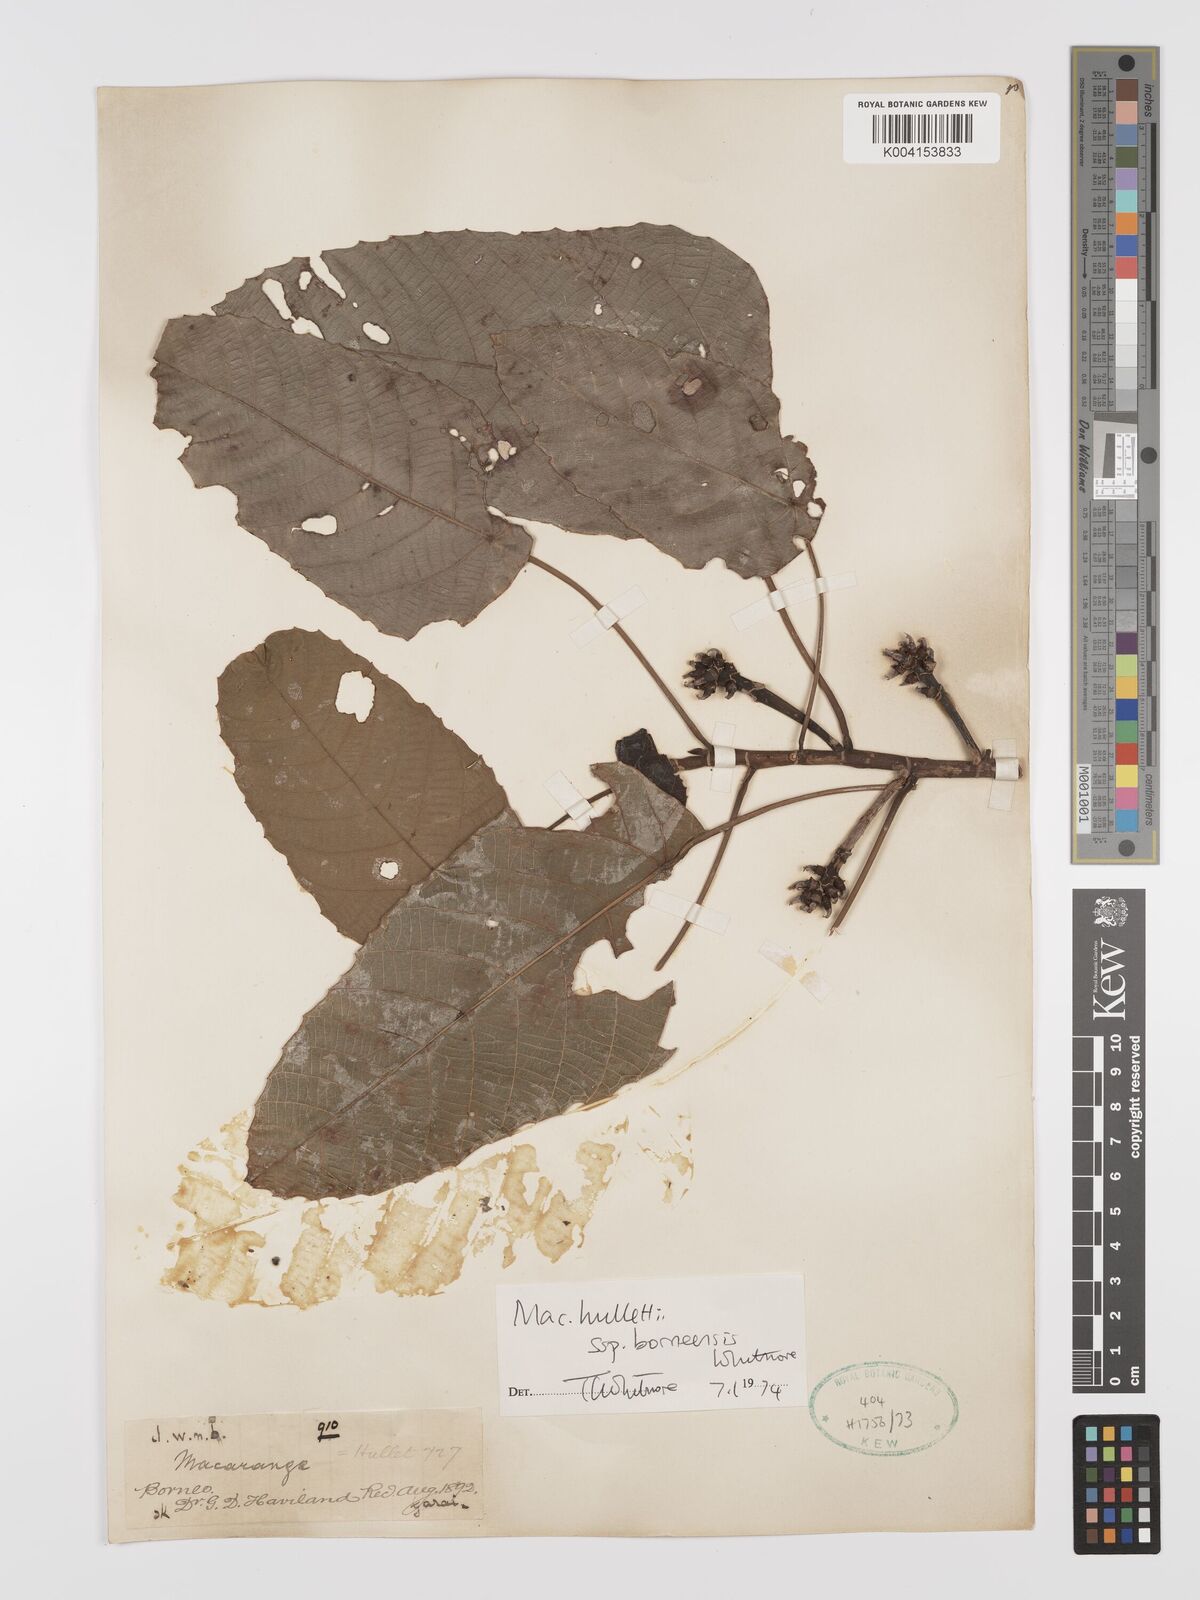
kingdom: Plantae
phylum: Tracheophyta
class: Magnoliopsida
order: Malpighiales
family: Euphorbiaceae
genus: Macaranga
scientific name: Macaranga hullettii
